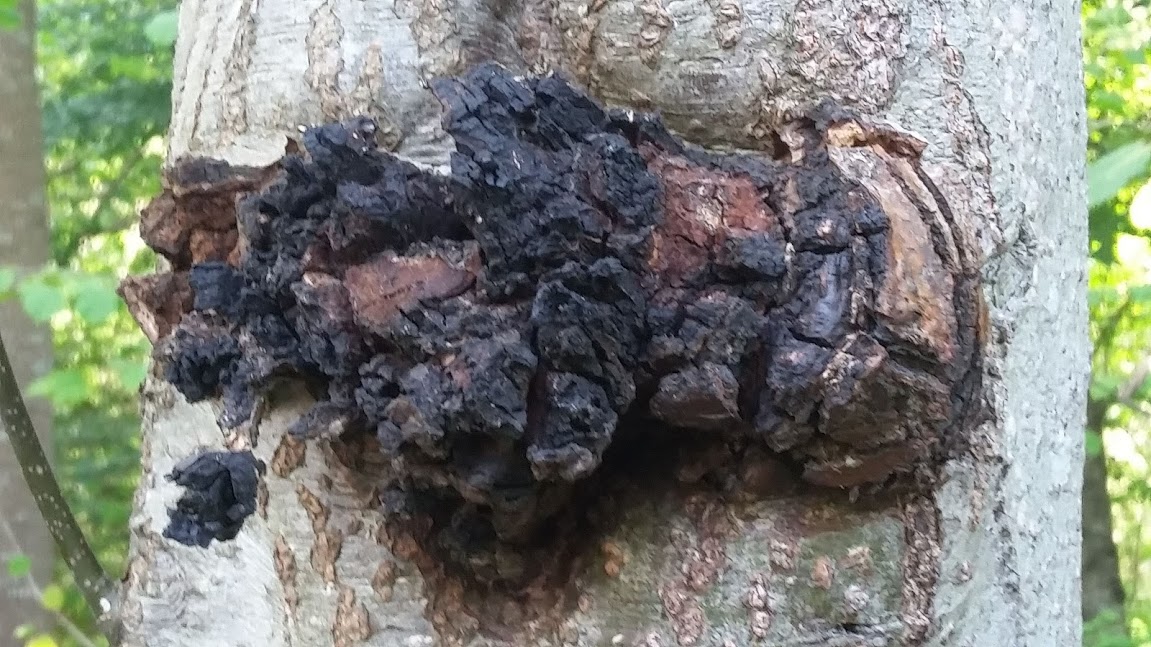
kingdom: Fungi
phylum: Basidiomycota
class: Agaricomycetes
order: Hymenochaetales
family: Hymenochaetaceae
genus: Inonotus
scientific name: Inonotus obliquus
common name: birke-spejlporesvamp
